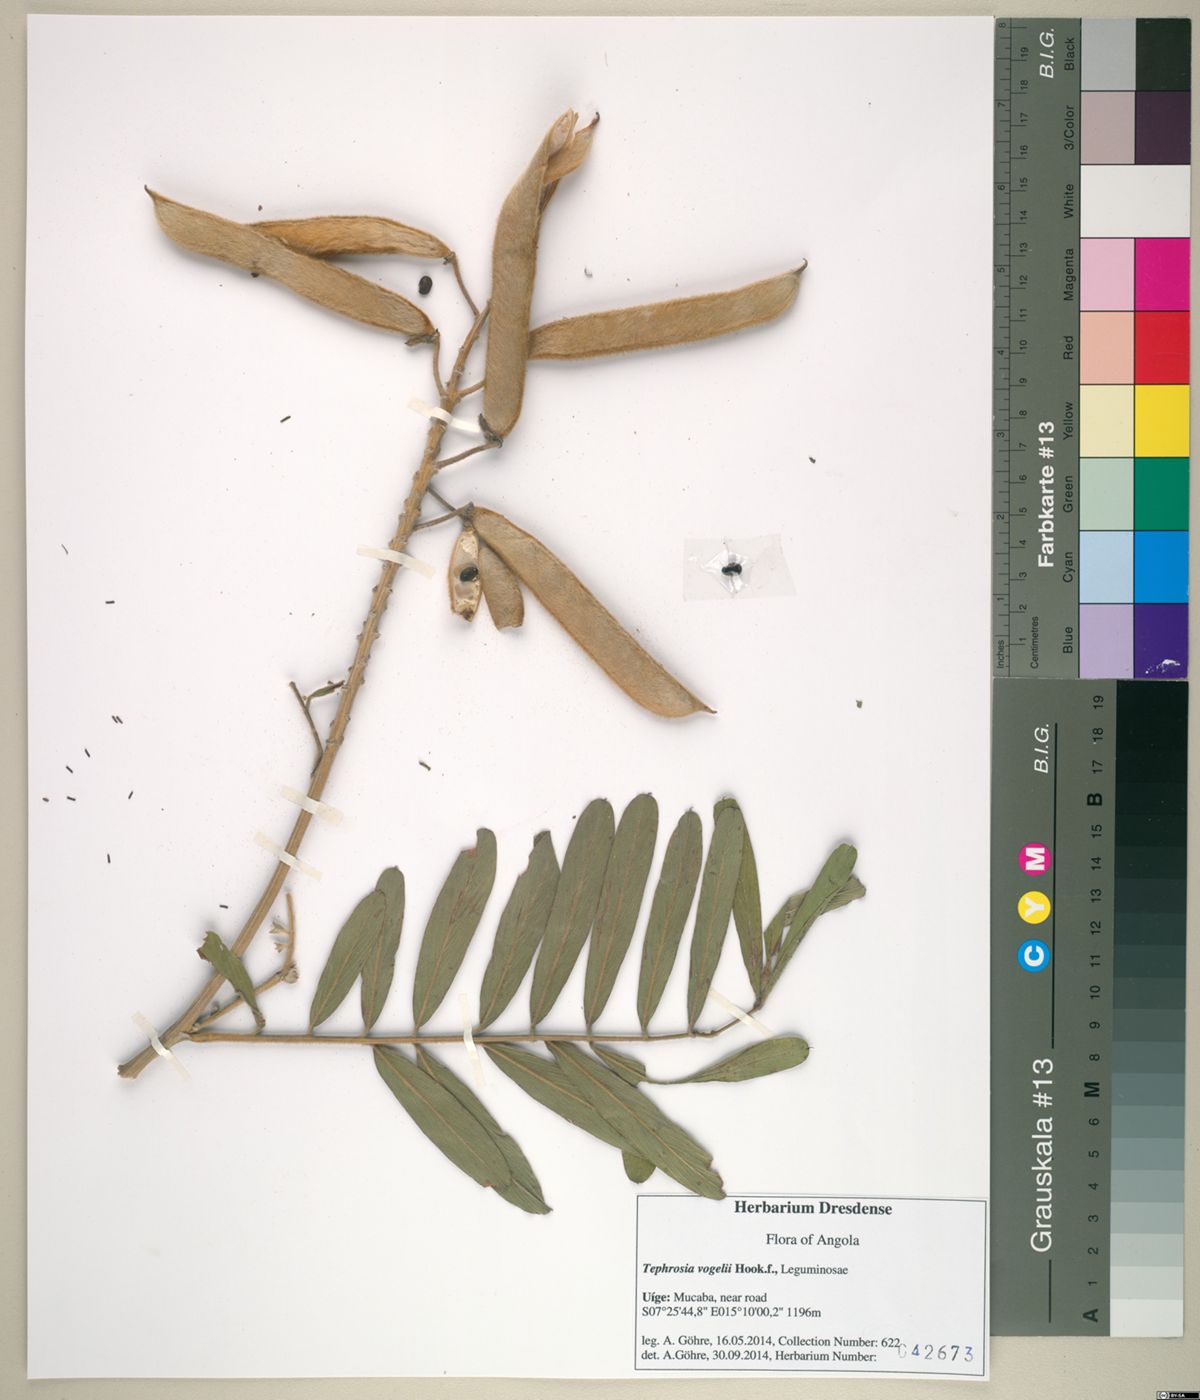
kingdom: Plantae
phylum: Tracheophyta
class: Magnoliopsida
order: Fabales
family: Fabaceae
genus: Tephrosia
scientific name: Tephrosia vogelii
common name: Vogel tephrosia
